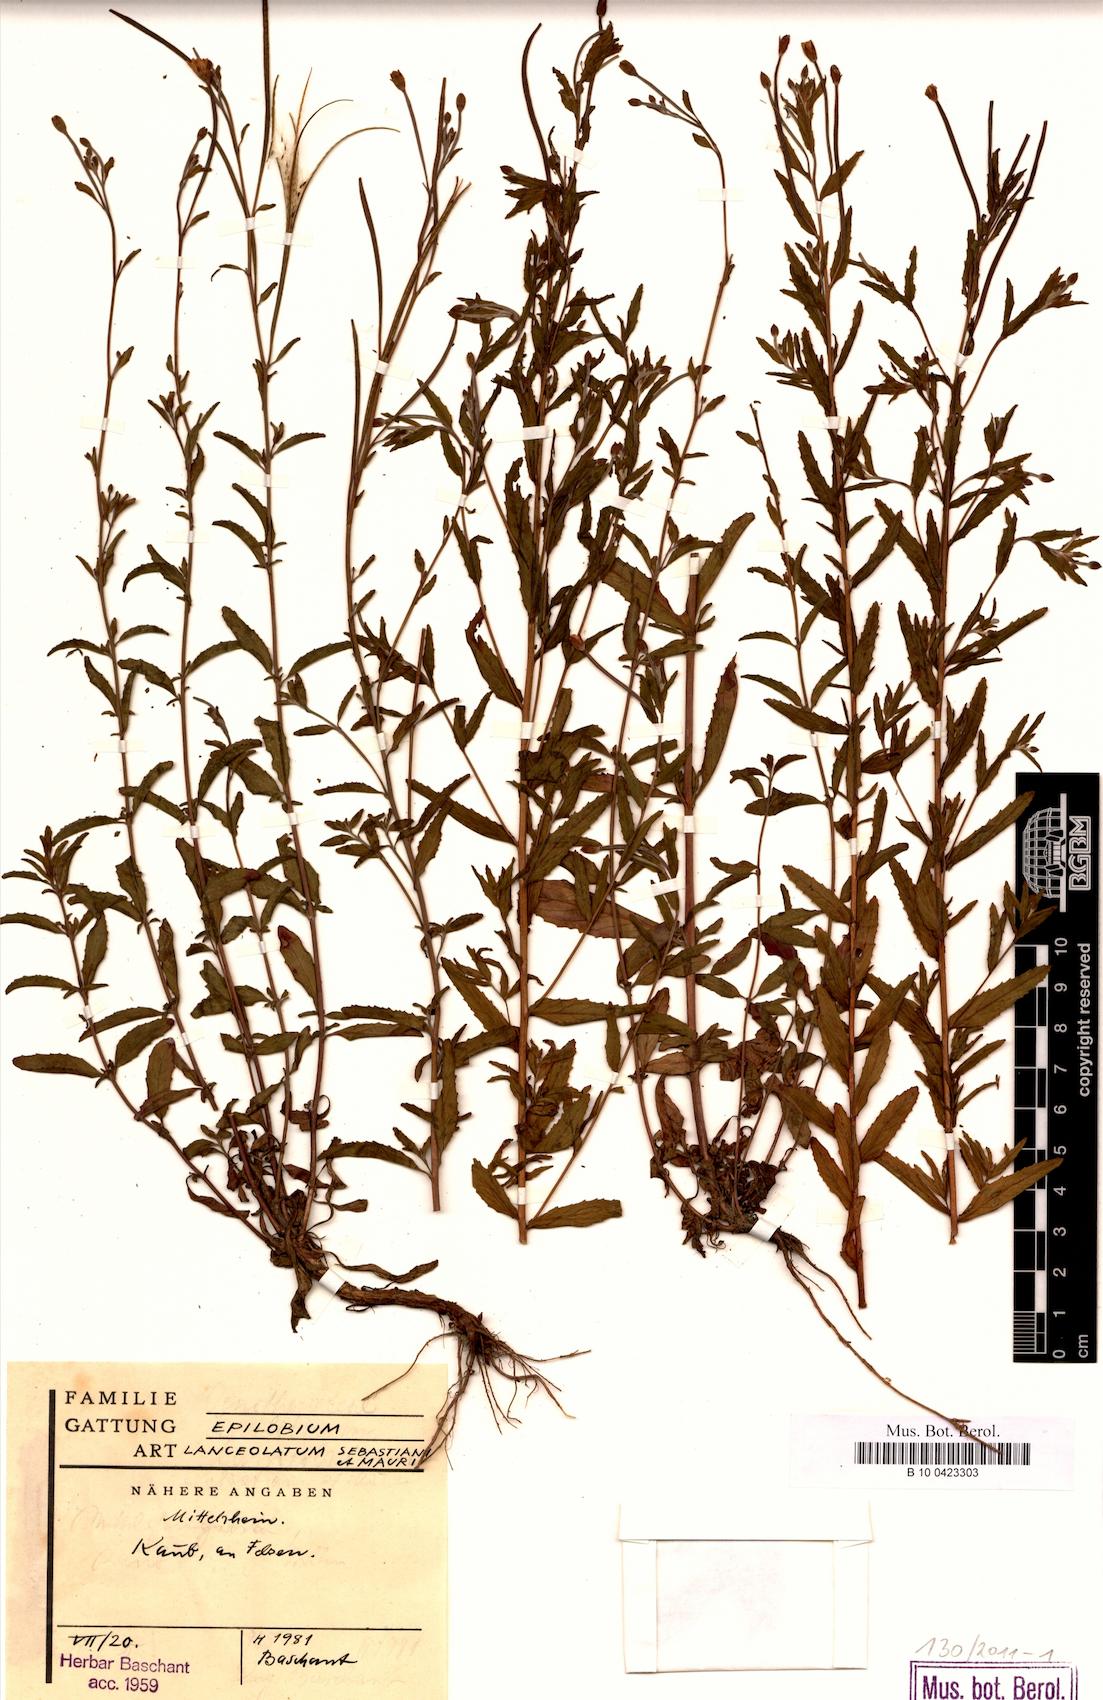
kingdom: Plantae
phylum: Tracheophyta
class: Magnoliopsida
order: Myrtales
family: Onagraceae
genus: Epilobium
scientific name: Epilobium lanceolatum
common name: Spear-leaved willowherb
